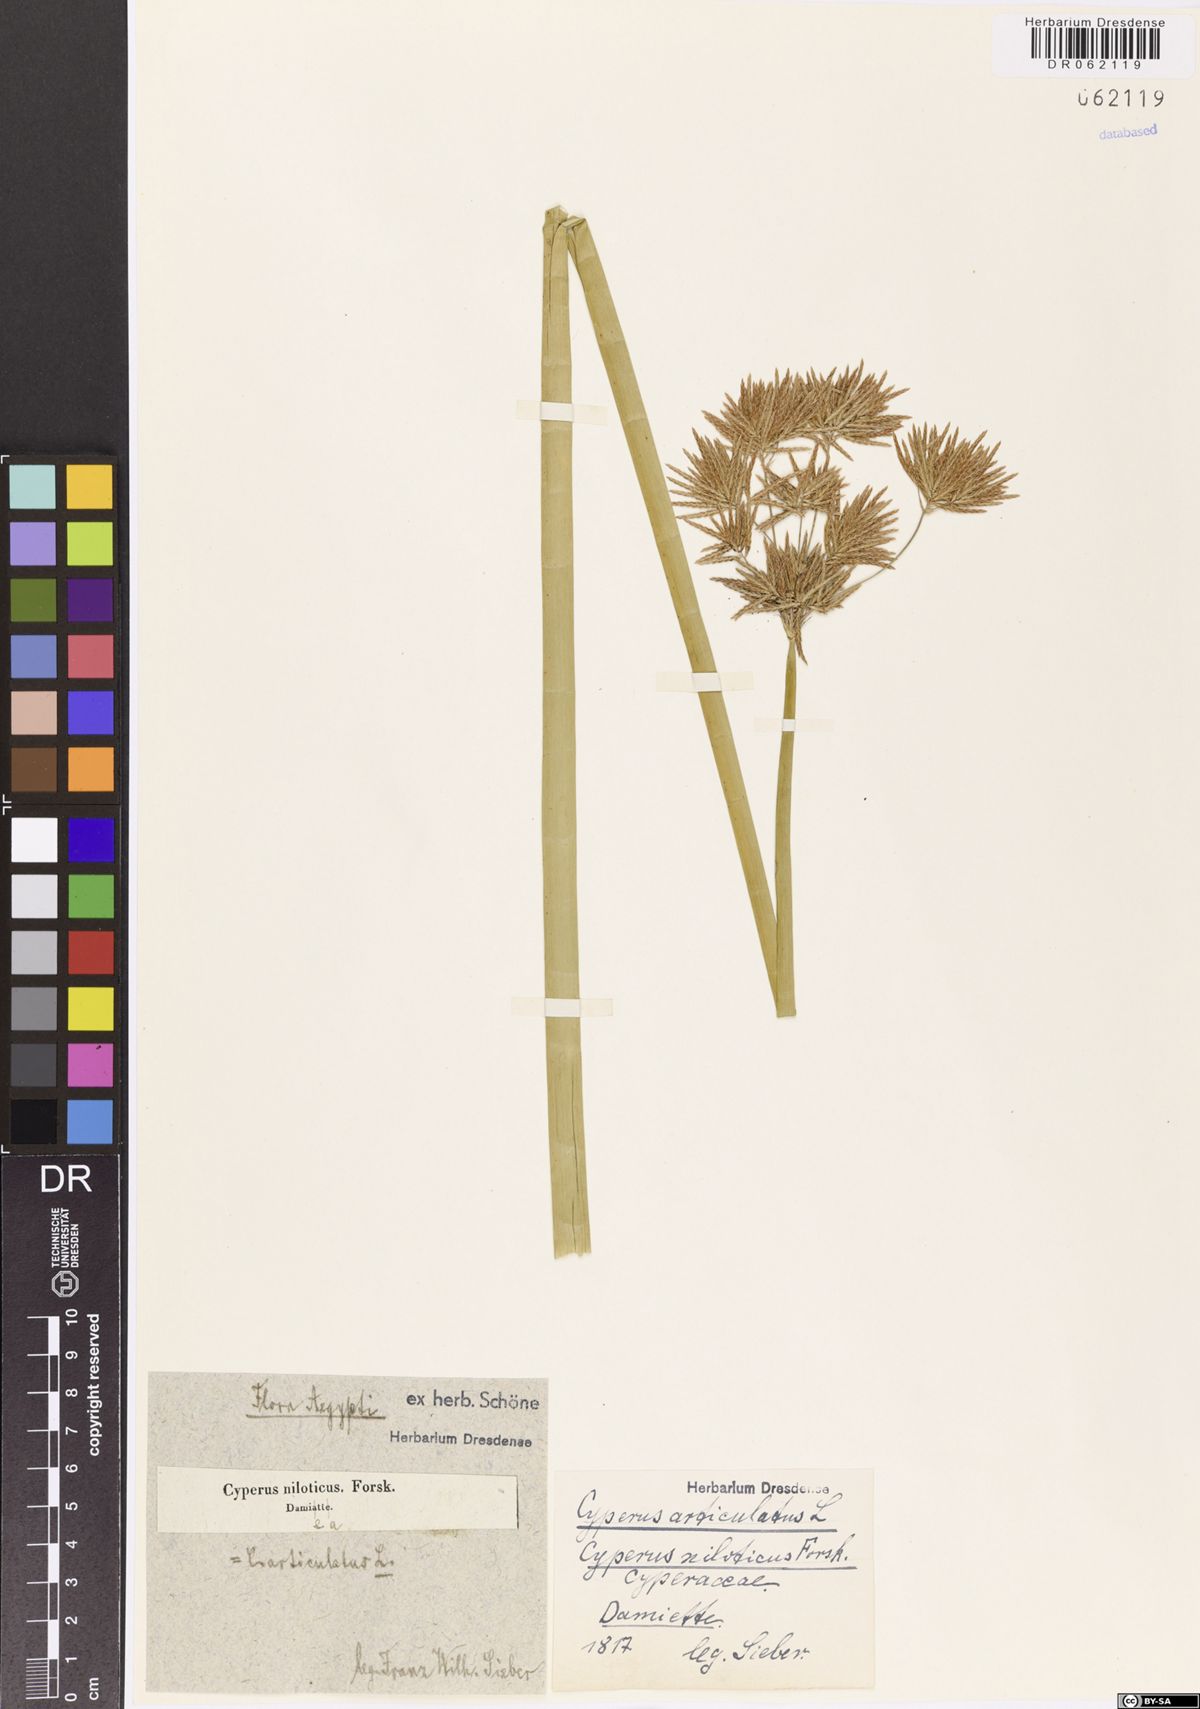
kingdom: Plantae
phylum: Tracheophyta
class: Liliopsida
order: Poales
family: Cyperaceae
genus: Cyperus
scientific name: Cyperus articulatus
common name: Jointed flatsedge
